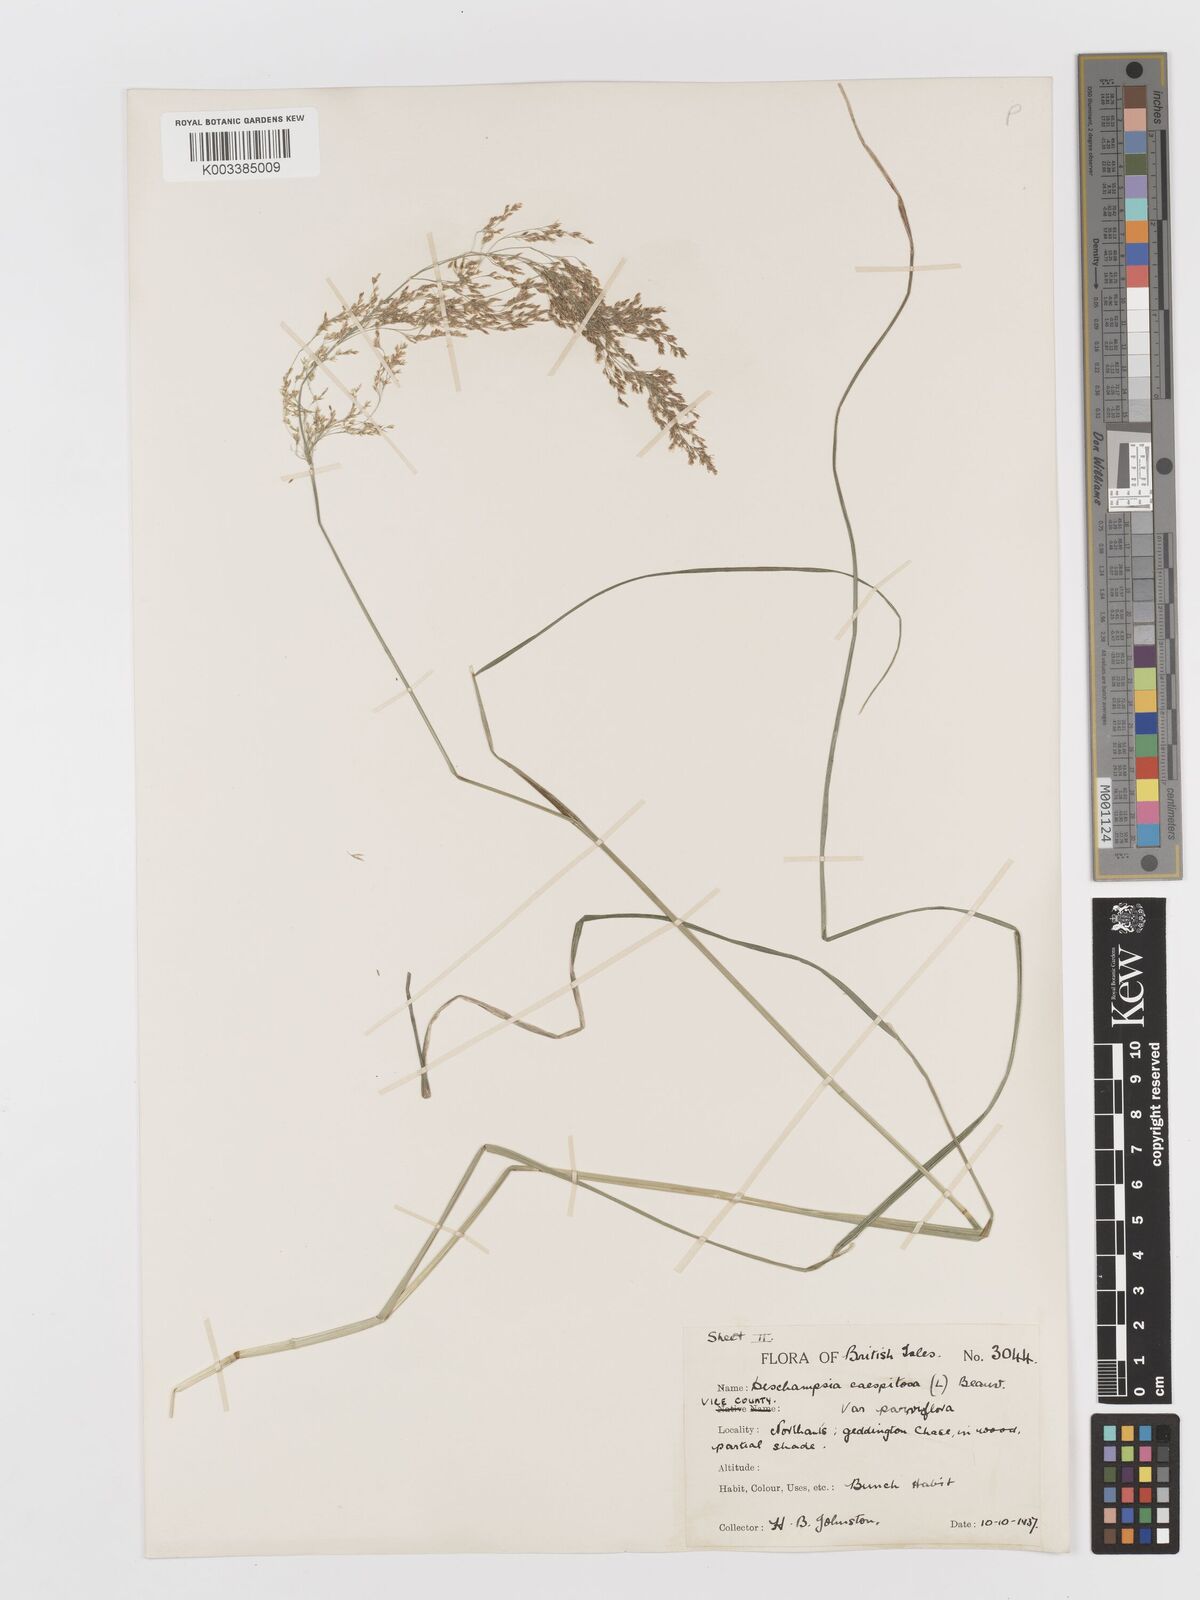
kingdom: Plantae
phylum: Tracheophyta
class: Liliopsida
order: Poales
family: Poaceae
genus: Deschampsia
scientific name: Deschampsia cespitosa
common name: Tufted hair-grass
